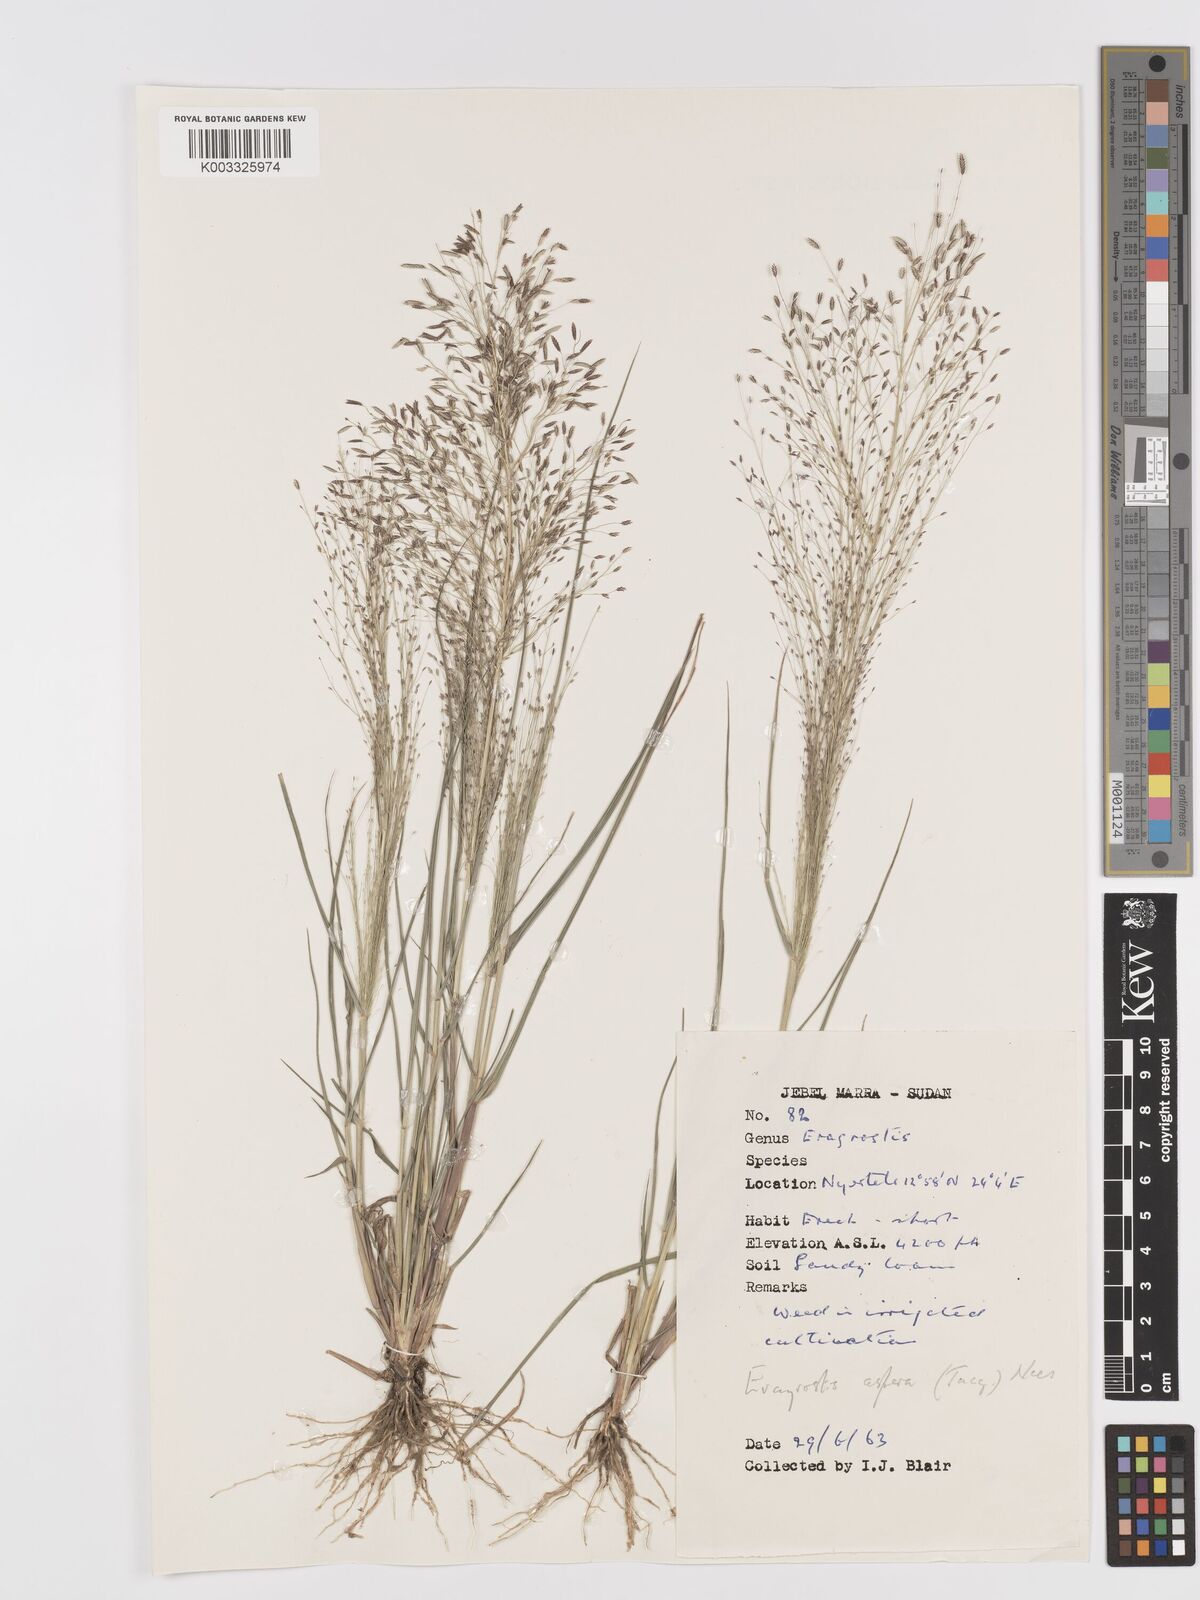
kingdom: Plantae
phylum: Tracheophyta
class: Liliopsida
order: Poales
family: Poaceae
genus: Eragrostis
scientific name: Eragrostis aspera
